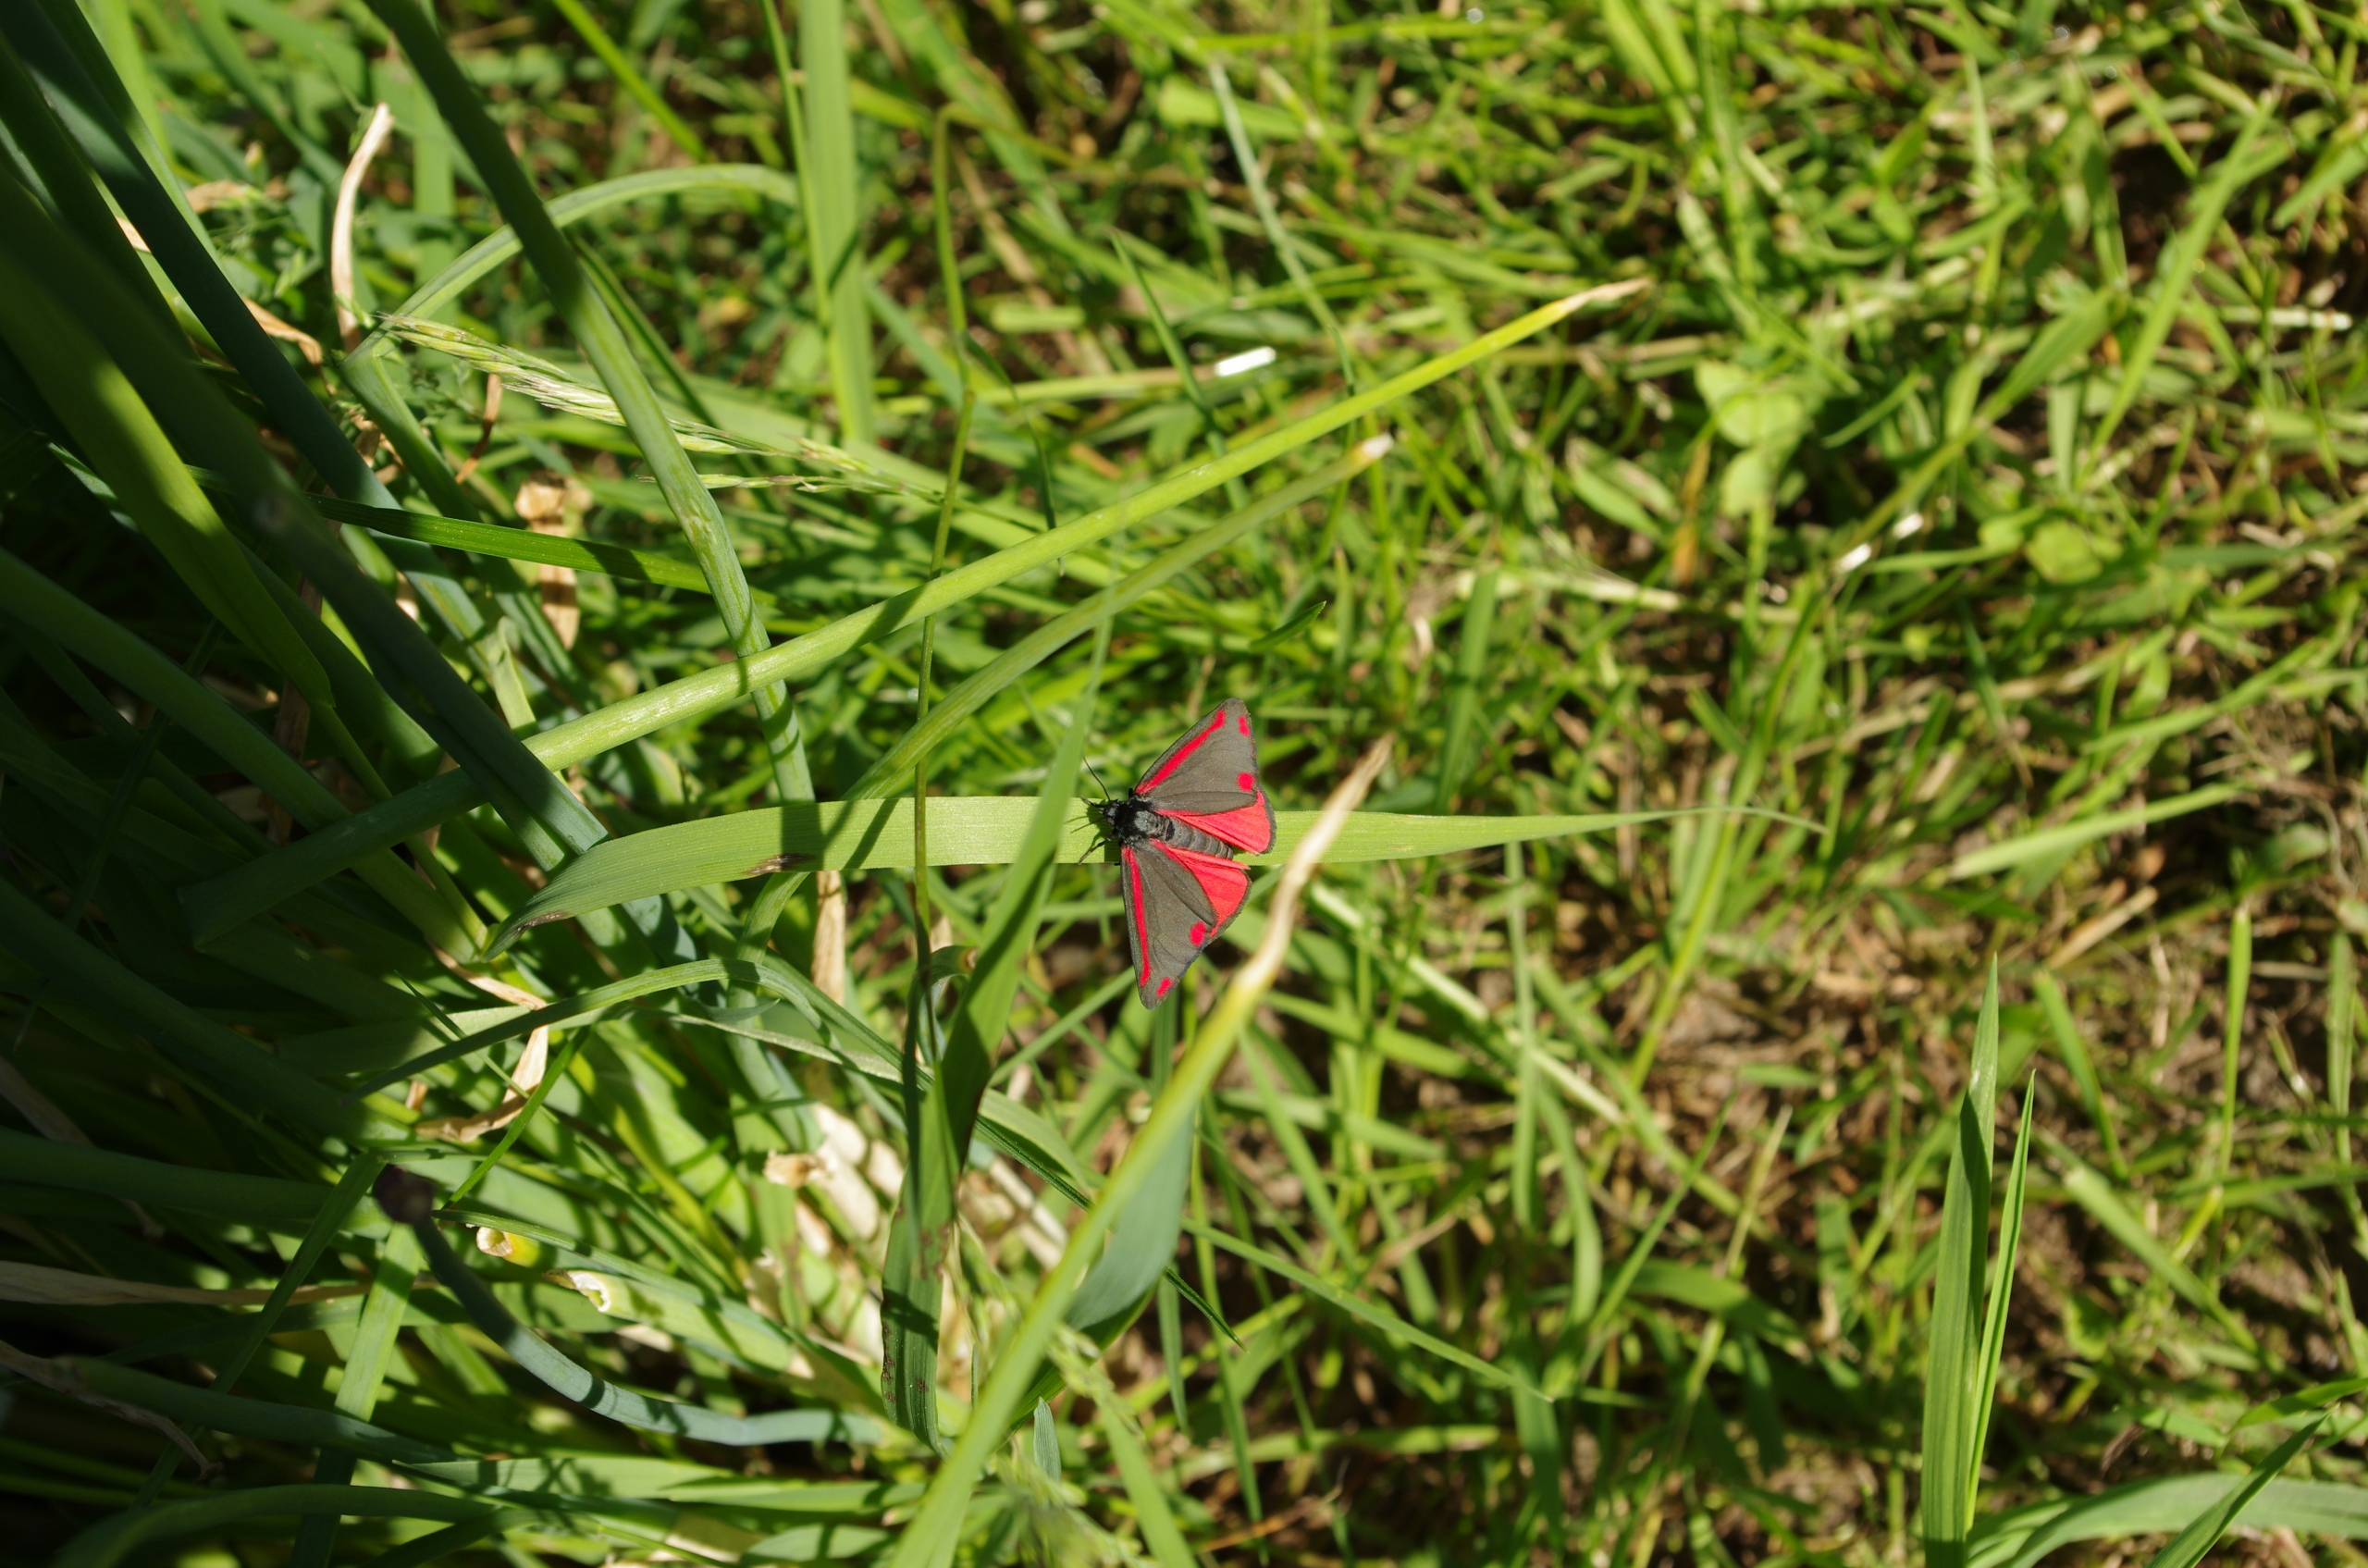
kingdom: Animalia
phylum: Arthropoda
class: Insecta
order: Lepidoptera
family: Erebidae
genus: Tyria
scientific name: Tyria jacobaeae
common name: Blodplet
